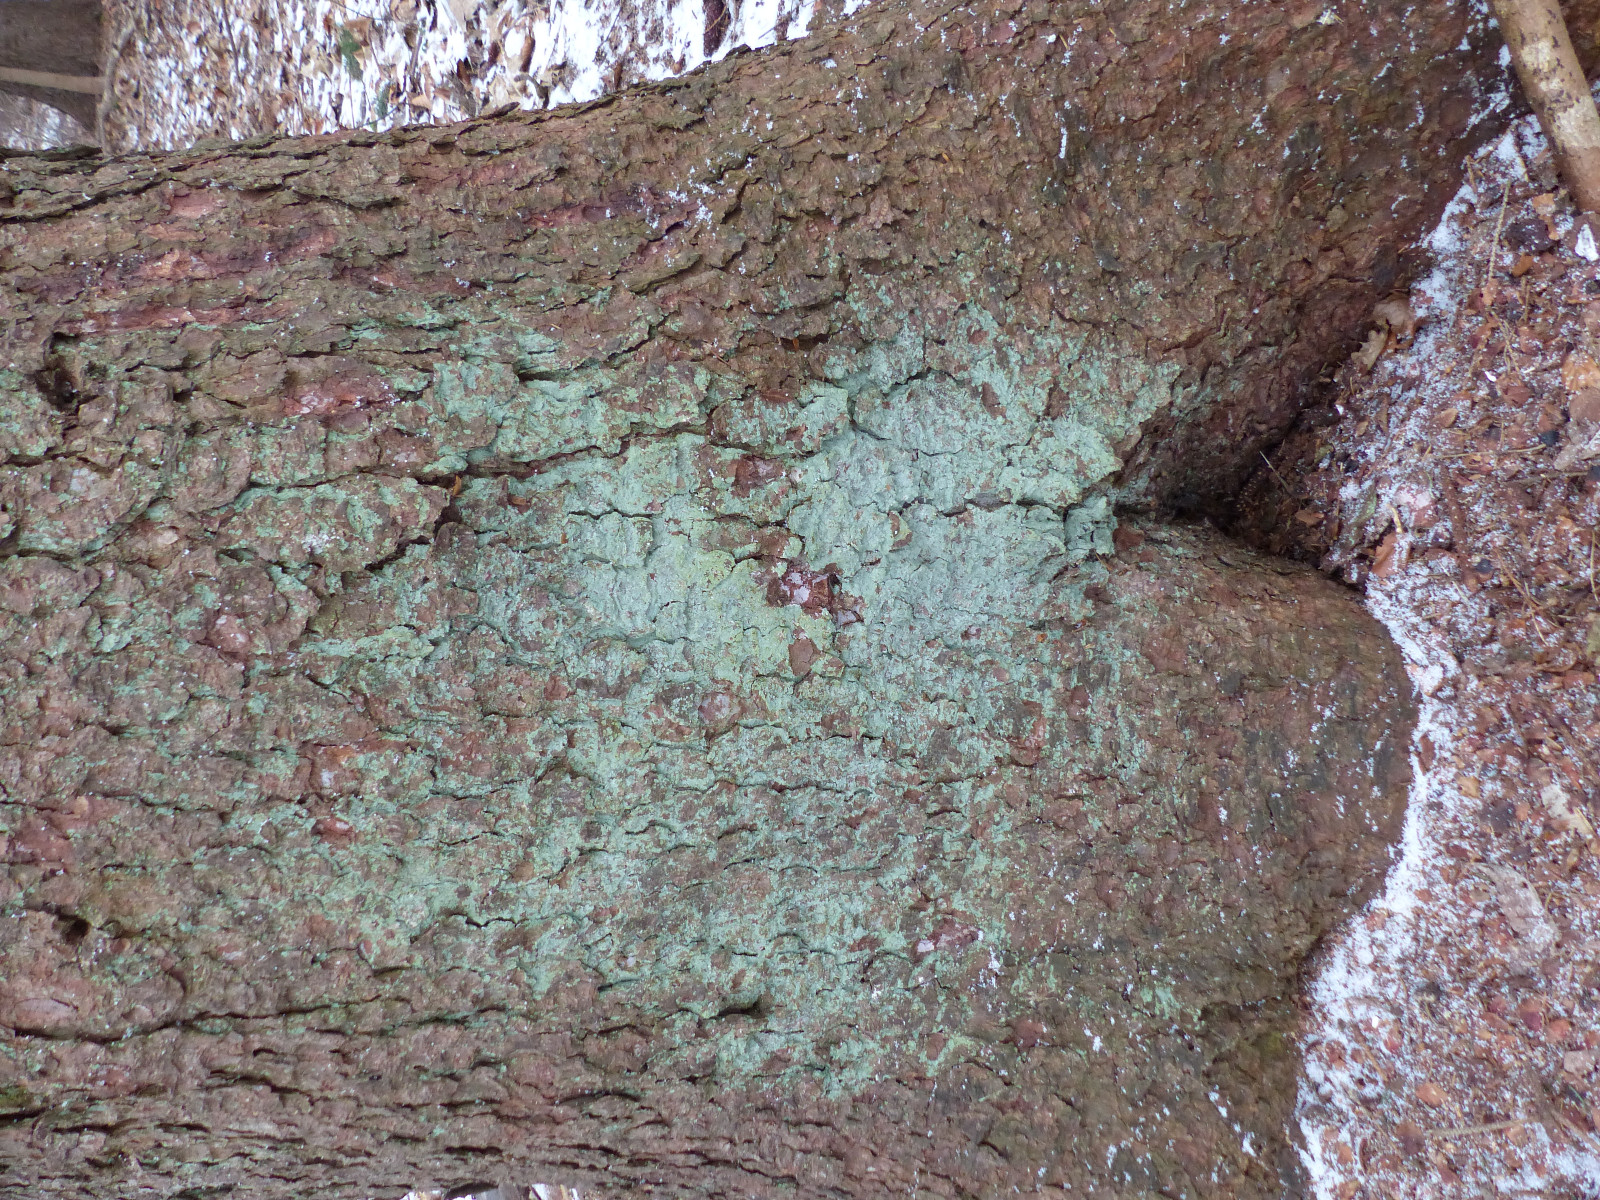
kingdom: Fungi
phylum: Ascomycota
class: Lecanoromycetes
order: Lecanorales
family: Stereocaulaceae
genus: Lepraria
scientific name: Lepraria
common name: støvlav
